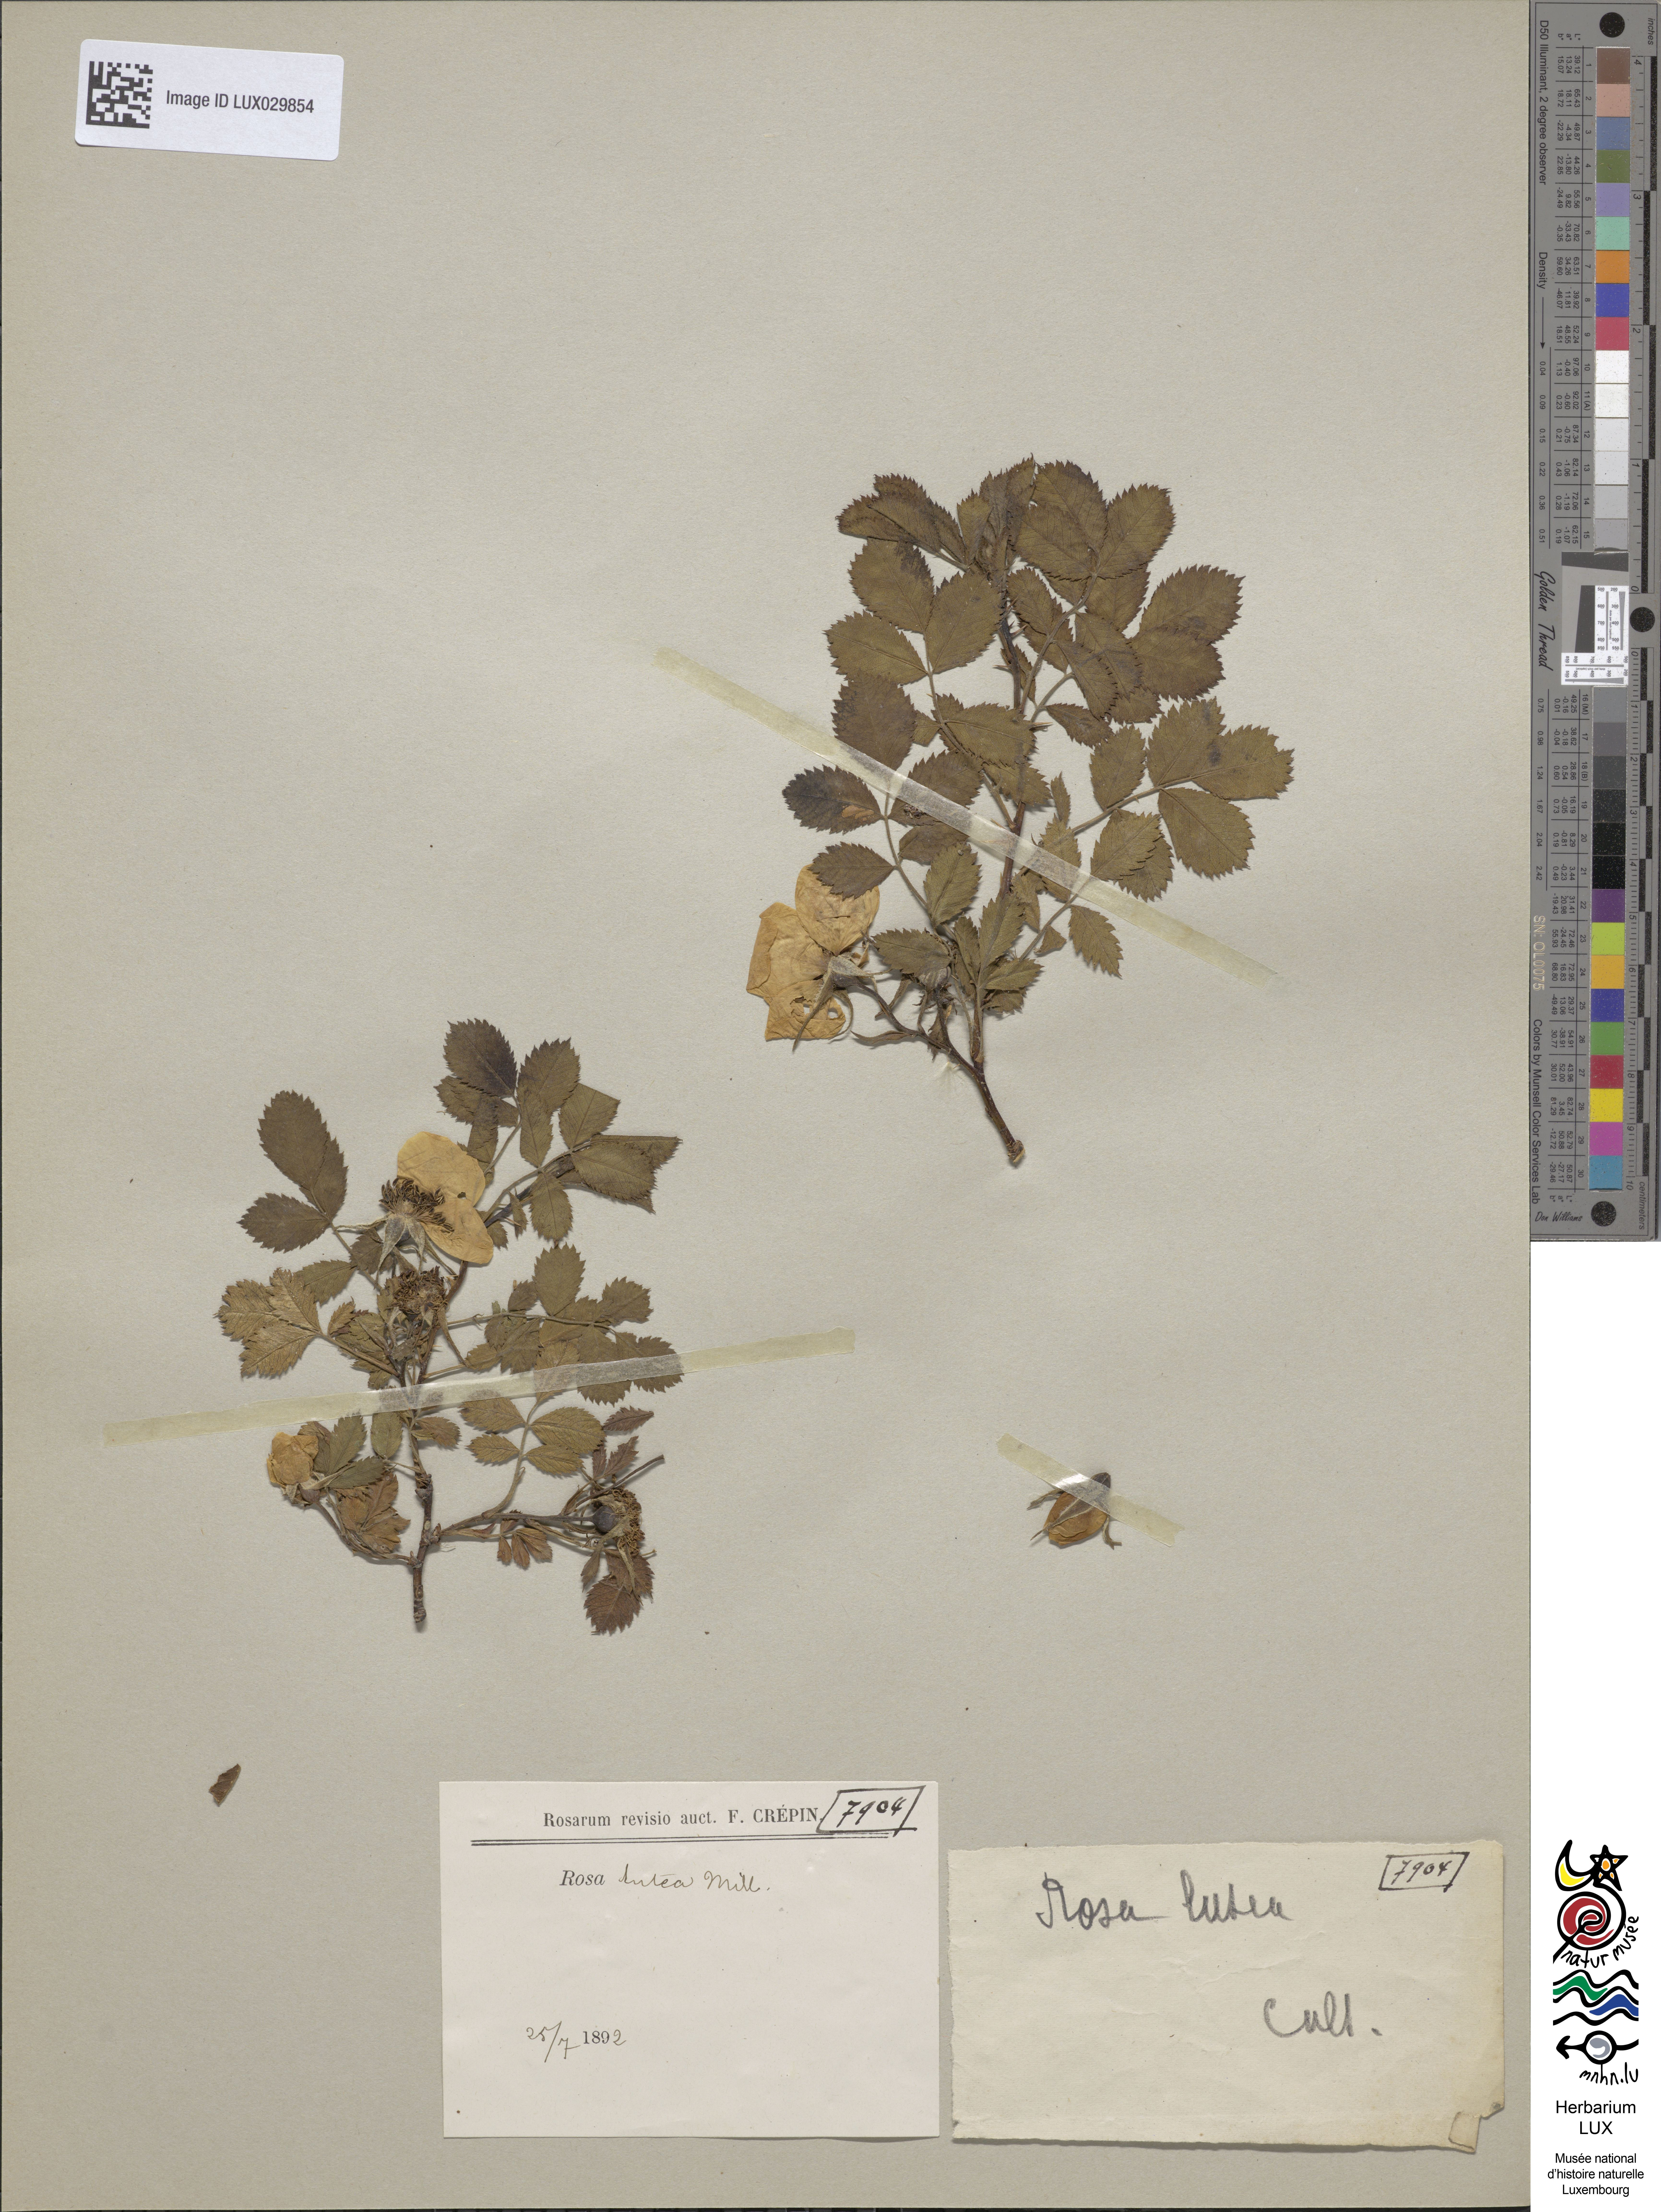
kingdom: Plantae
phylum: Tracheophyta
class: Magnoliopsida
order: Rosales
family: Rosaceae
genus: Rosa
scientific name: Rosa foetida
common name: Persian yellow rose
